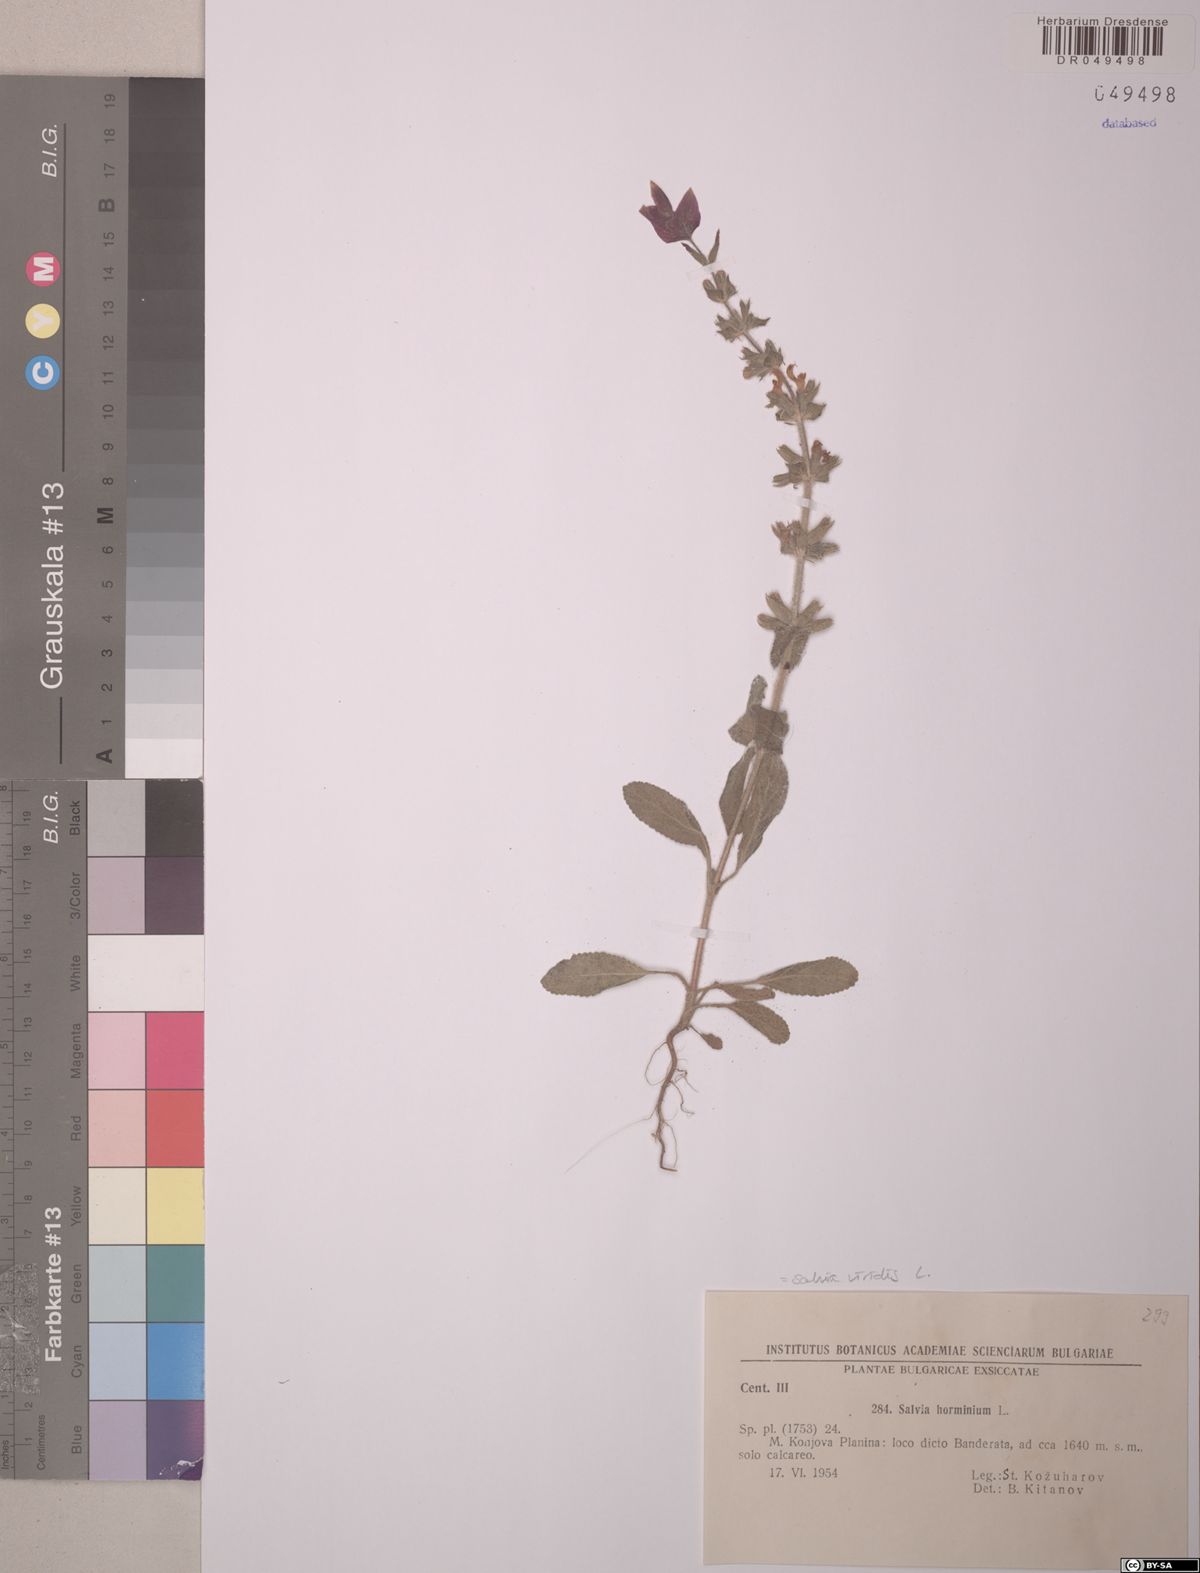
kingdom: Plantae
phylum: Tracheophyta
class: Magnoliopsida
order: Lamiales
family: Lamiaceae
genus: Salvia
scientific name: Salvia viridis
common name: Annual clary
